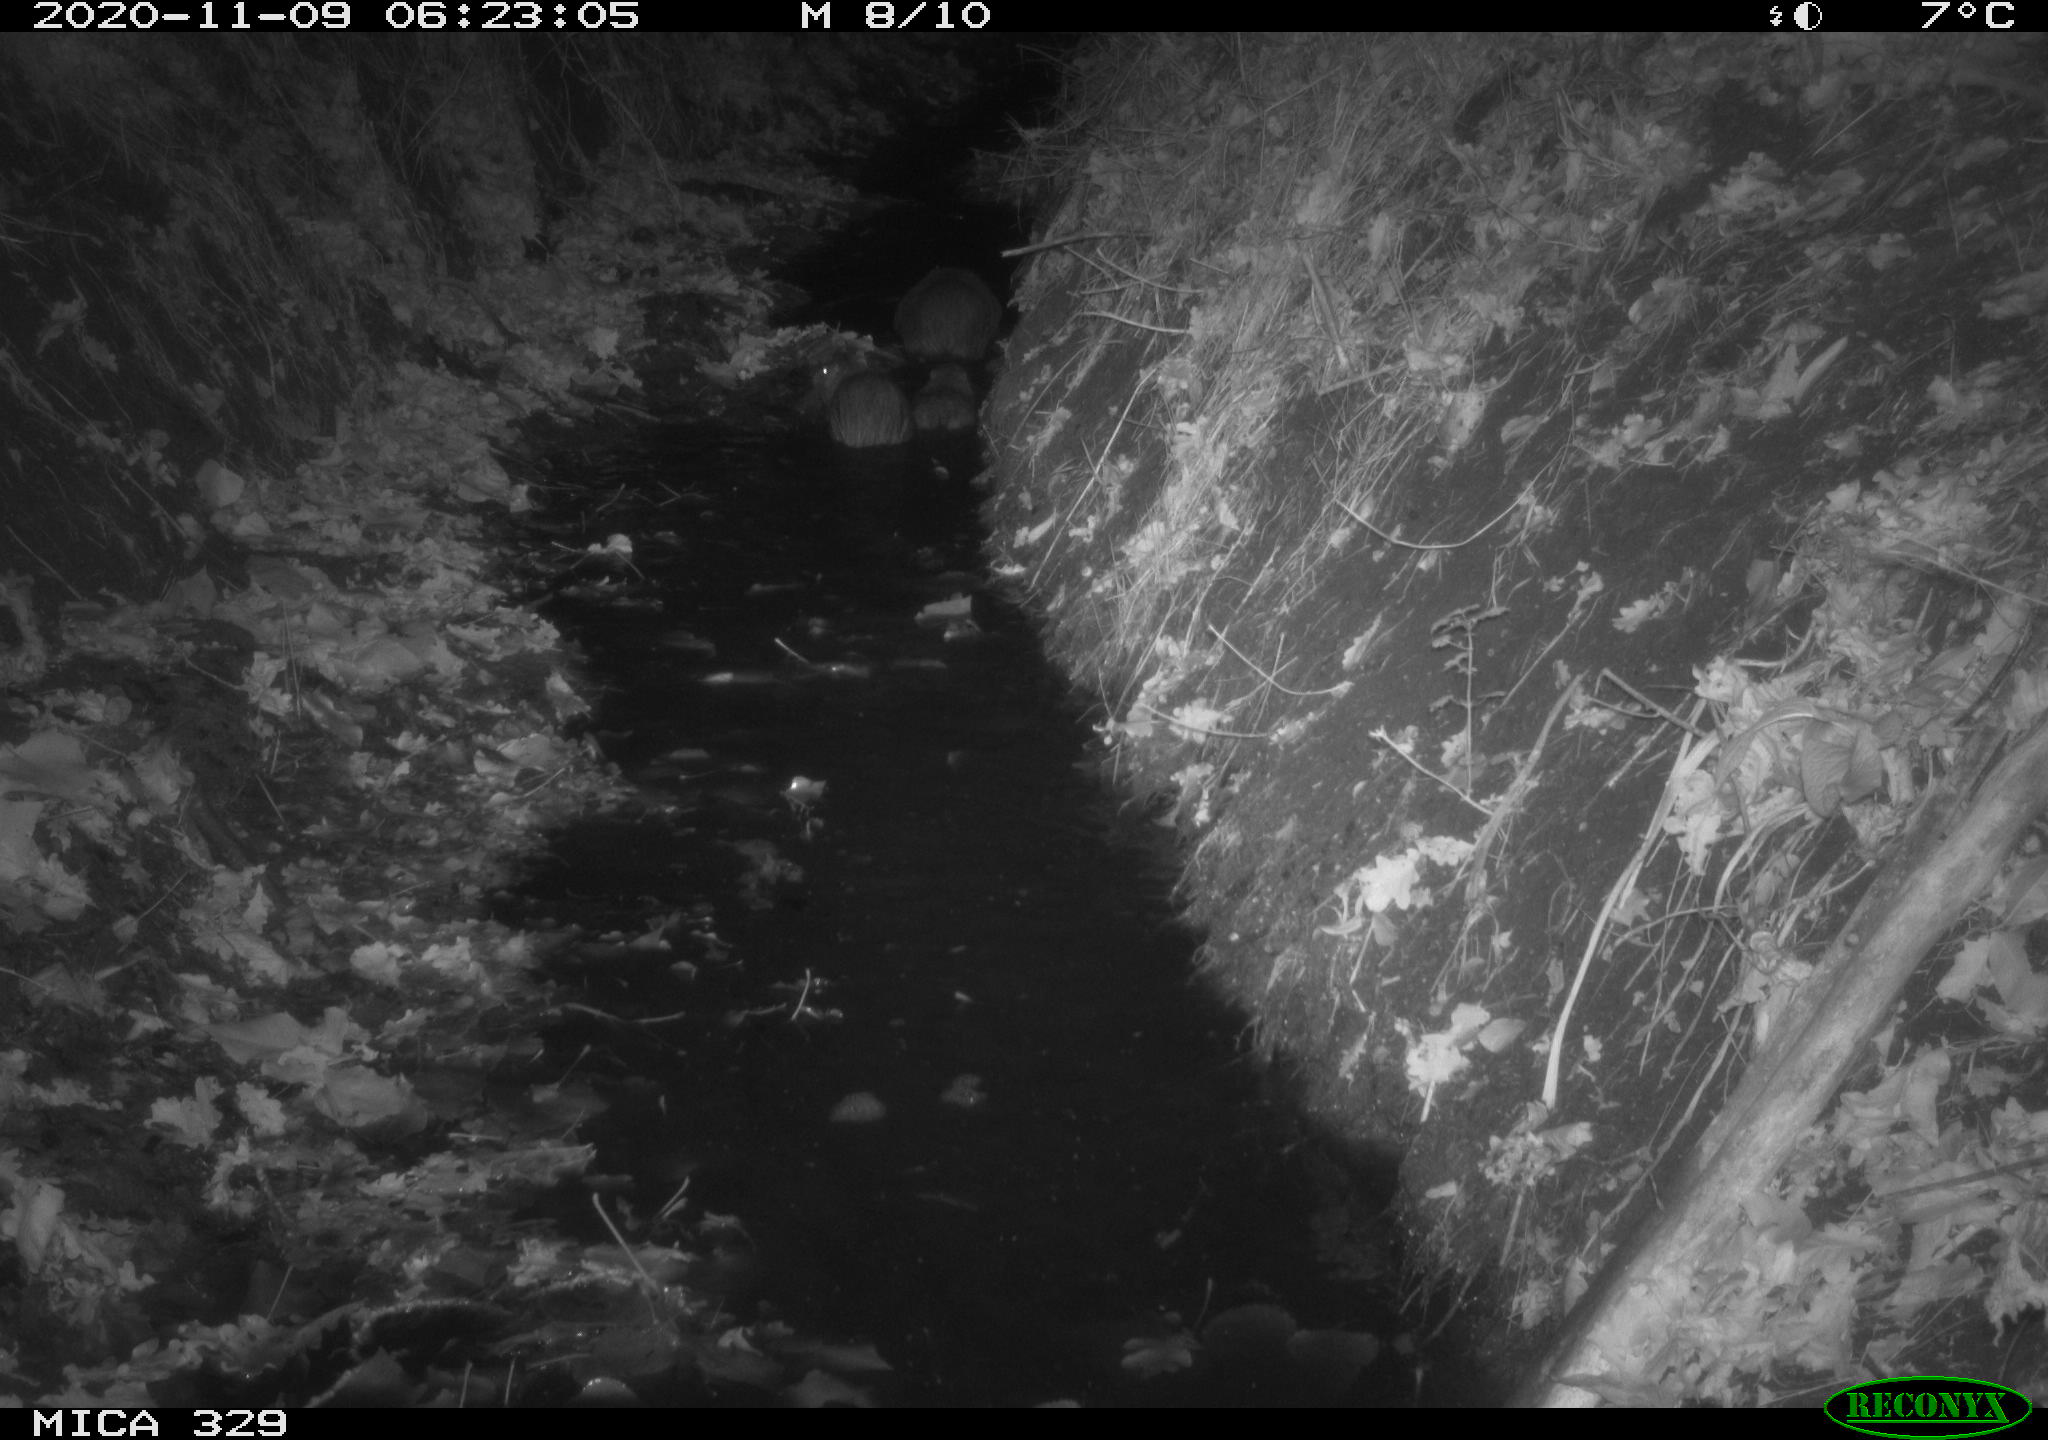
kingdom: Animalia
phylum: Chordata
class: Mammalia
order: Rodentia
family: Myocastoridae
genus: Myocastor
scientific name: Myocastor coypus
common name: Coypu
